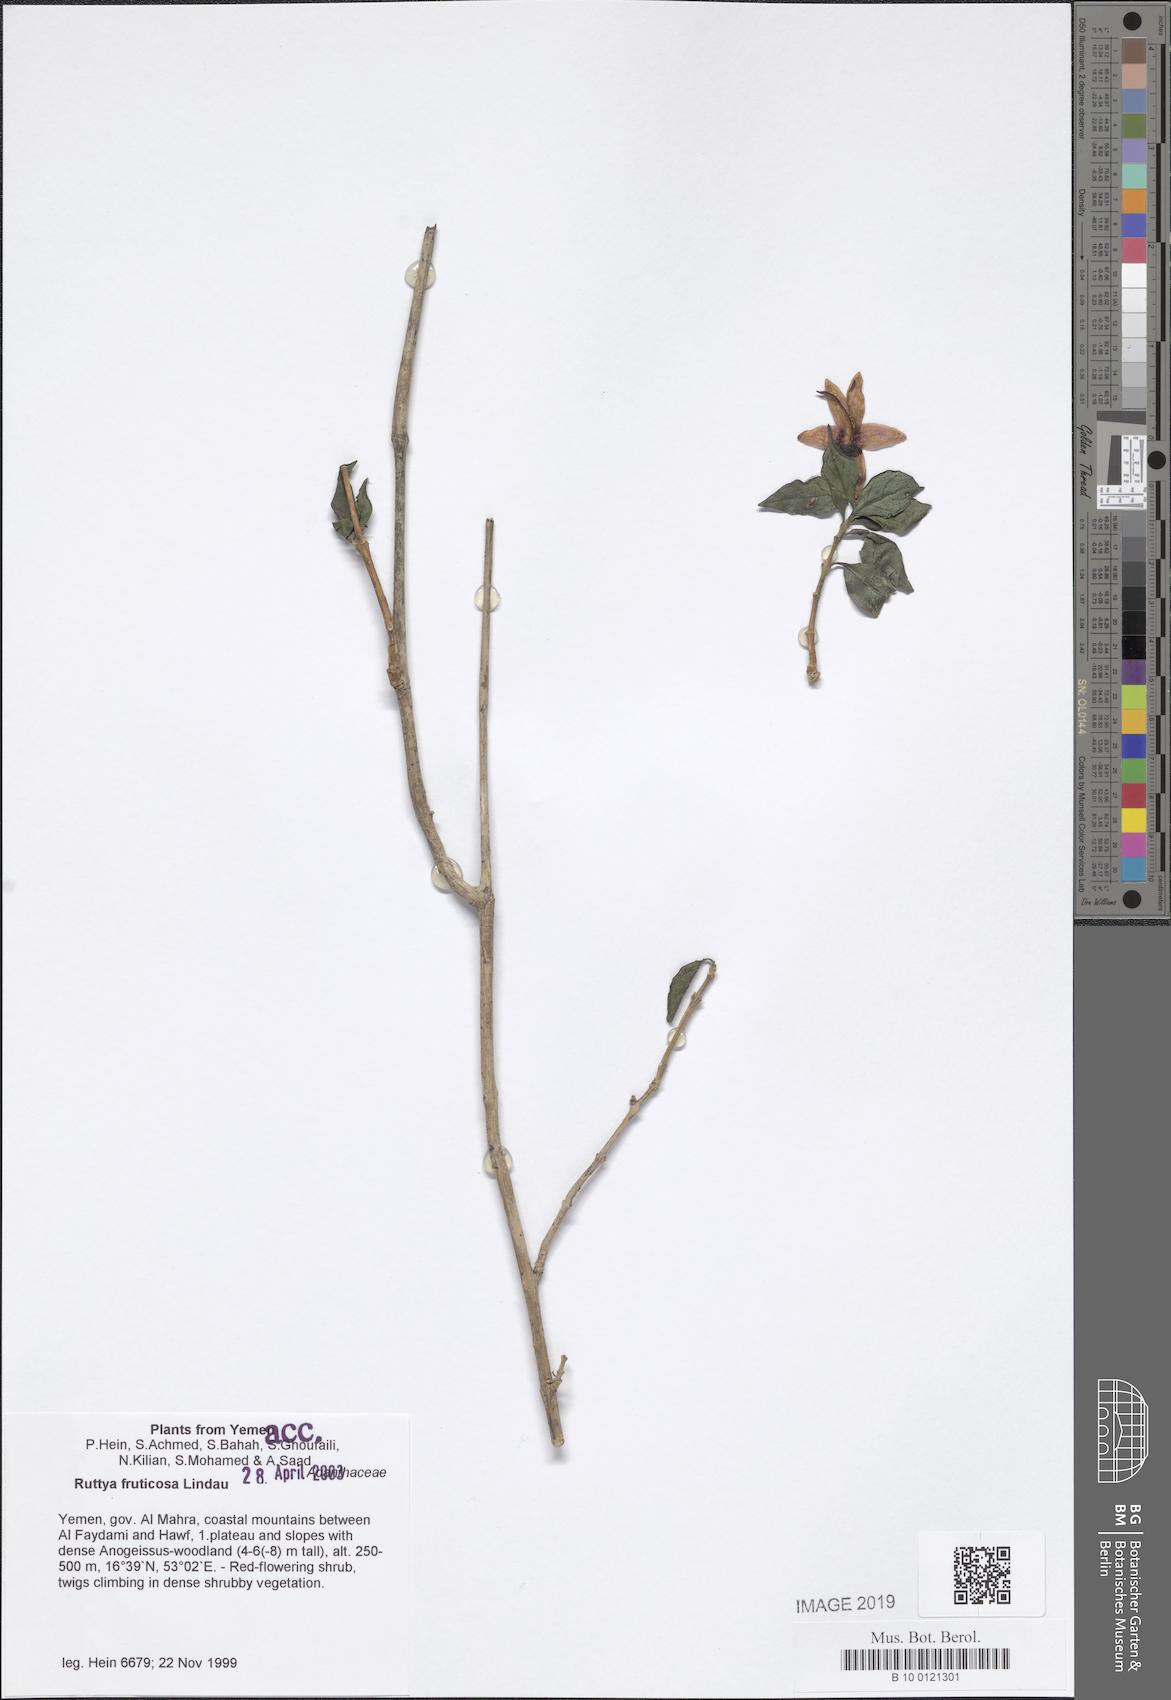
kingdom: Plantae
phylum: Tracheophyta
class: Magnoliopsida
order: Lamiales
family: Acanthaceae
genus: Ruttya
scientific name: Ruttya fruticosa
